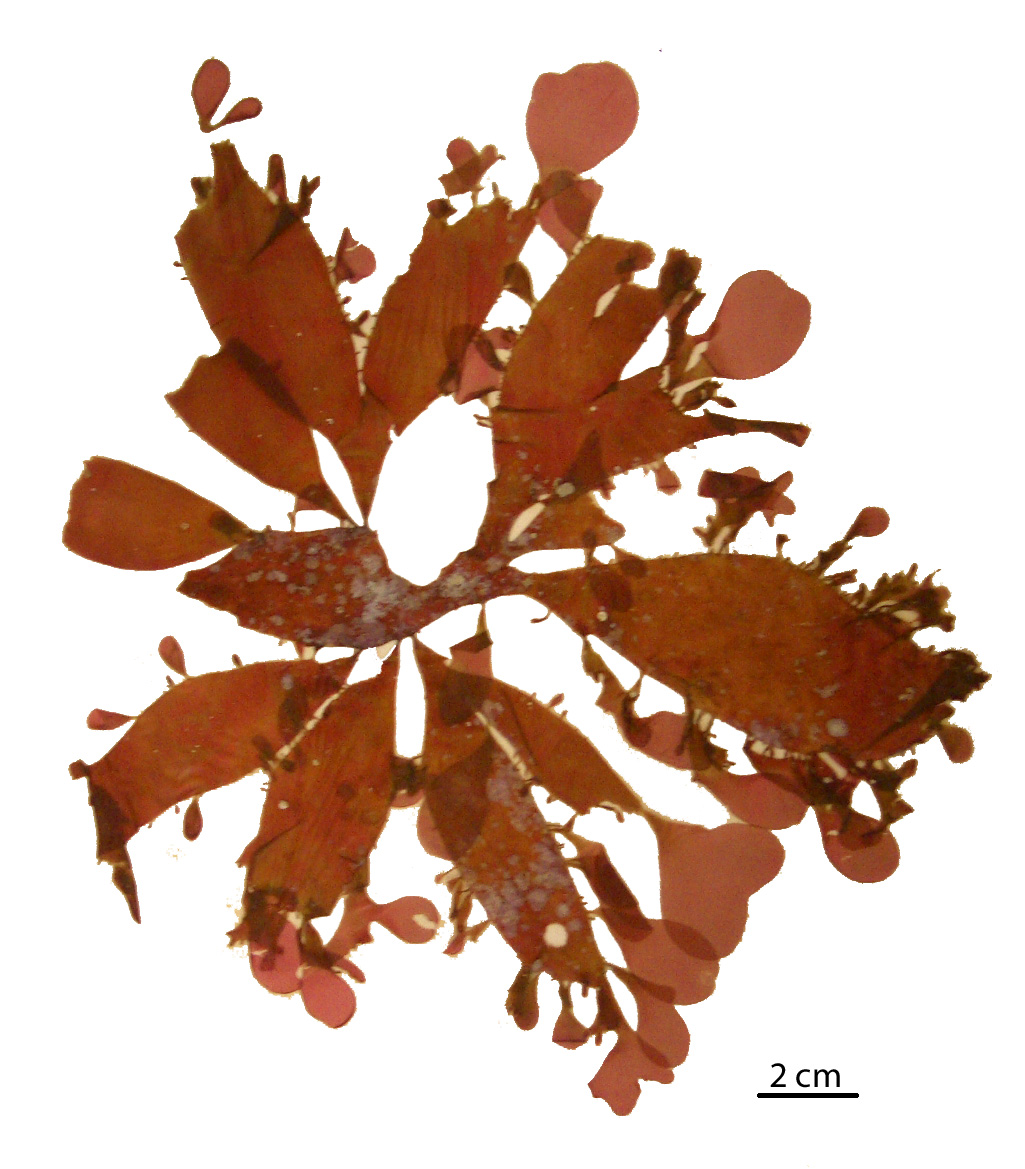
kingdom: Plantae
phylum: Rhodophyta
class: Florideophyceae
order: Halymeniales
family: Halymeniaceae
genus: Cryptonemia
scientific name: Cryptonemia latissima
